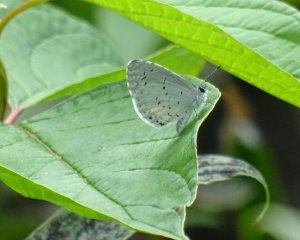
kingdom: Animalia
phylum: Arthropoda
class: Insecta
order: Lepidoptera
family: Lycaenidae
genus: Cyaniris
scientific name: Cyaniris neglecta
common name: Summer Azure
